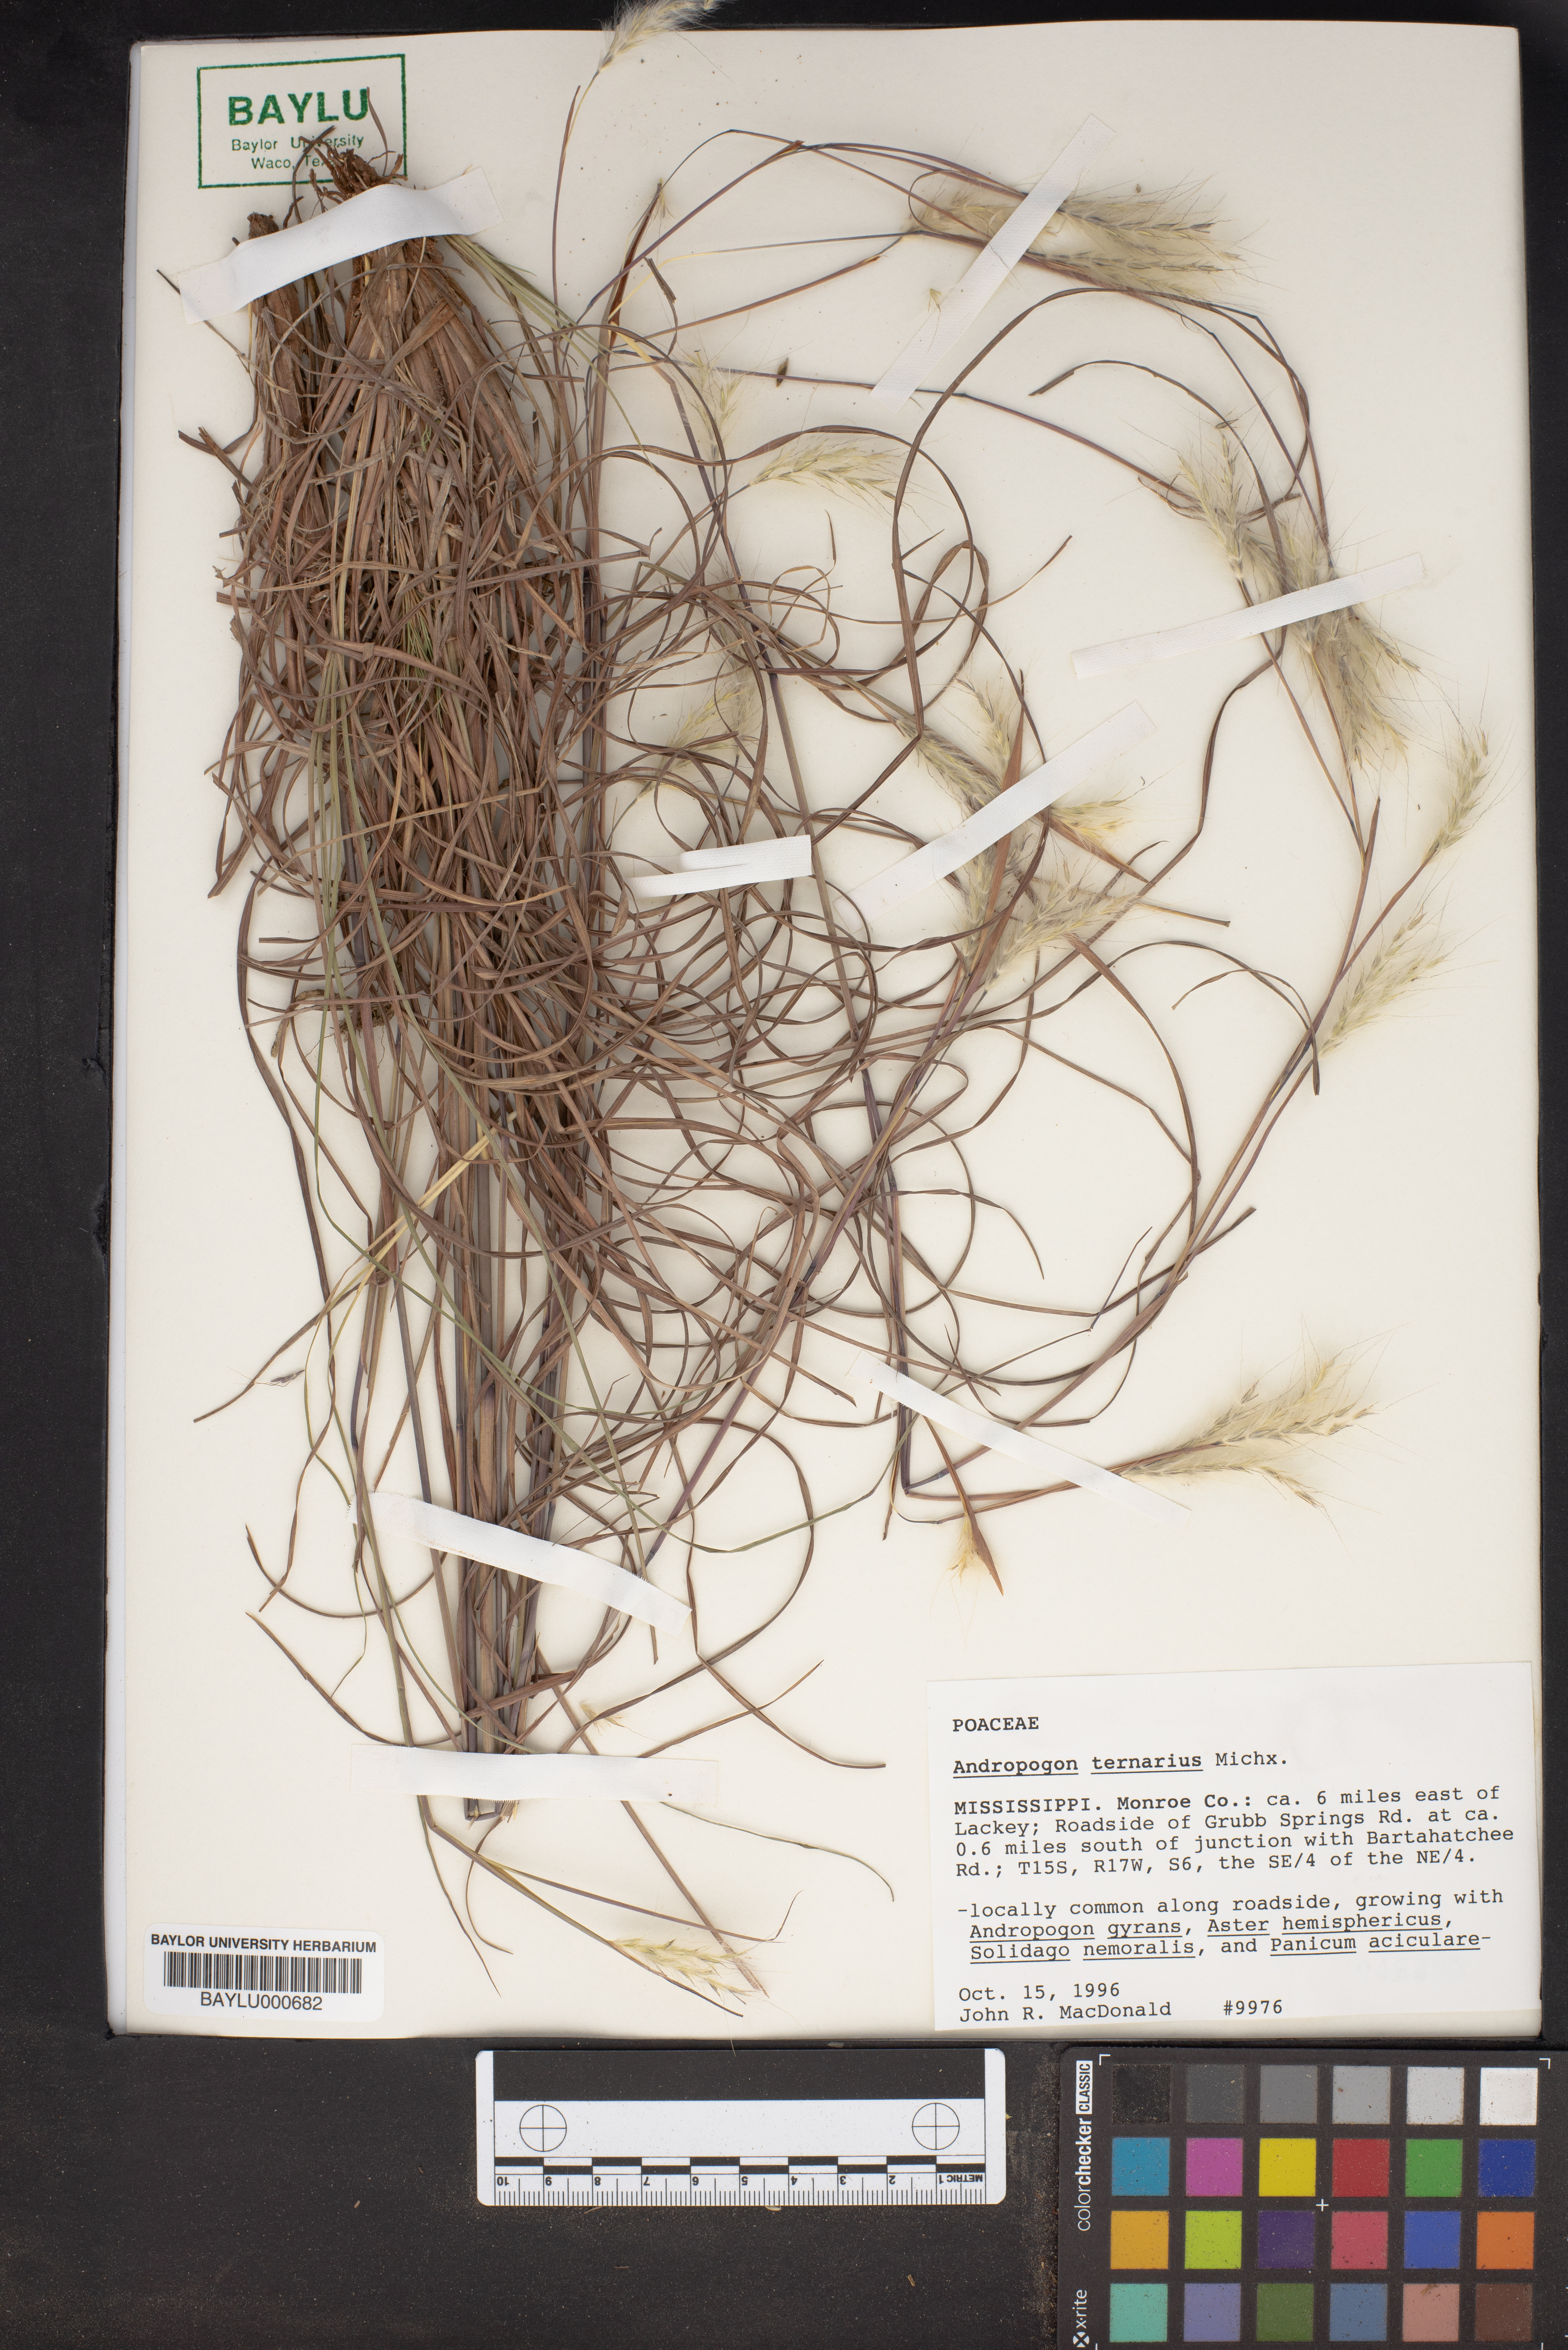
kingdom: Plantae
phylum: Tracheophyta
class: Liliopsida
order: Poales
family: Poaceae
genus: Andropogon
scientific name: Andropogon ternarius
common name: Split bluestem
